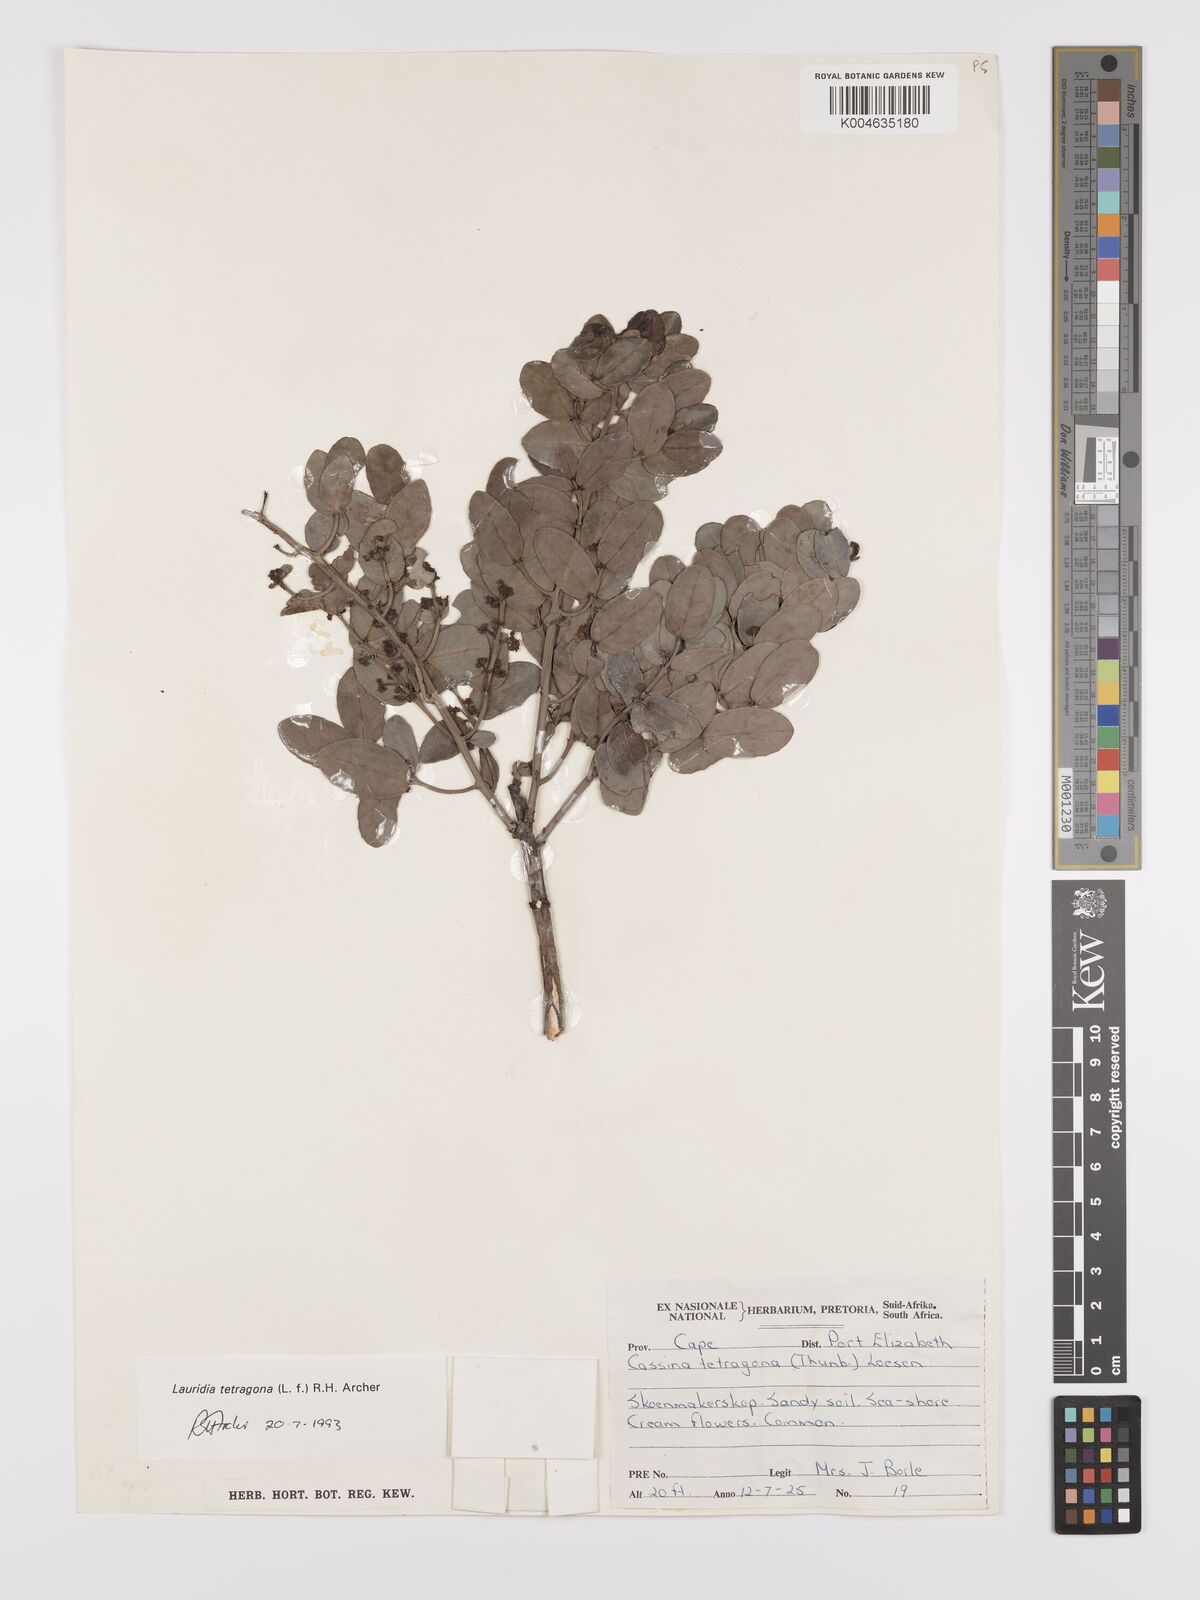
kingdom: Plantae
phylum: Tracheophyta
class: Magnoliopsida
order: Celastrales
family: Celastraceae
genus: Lauridia
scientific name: Lauridia tetragona
